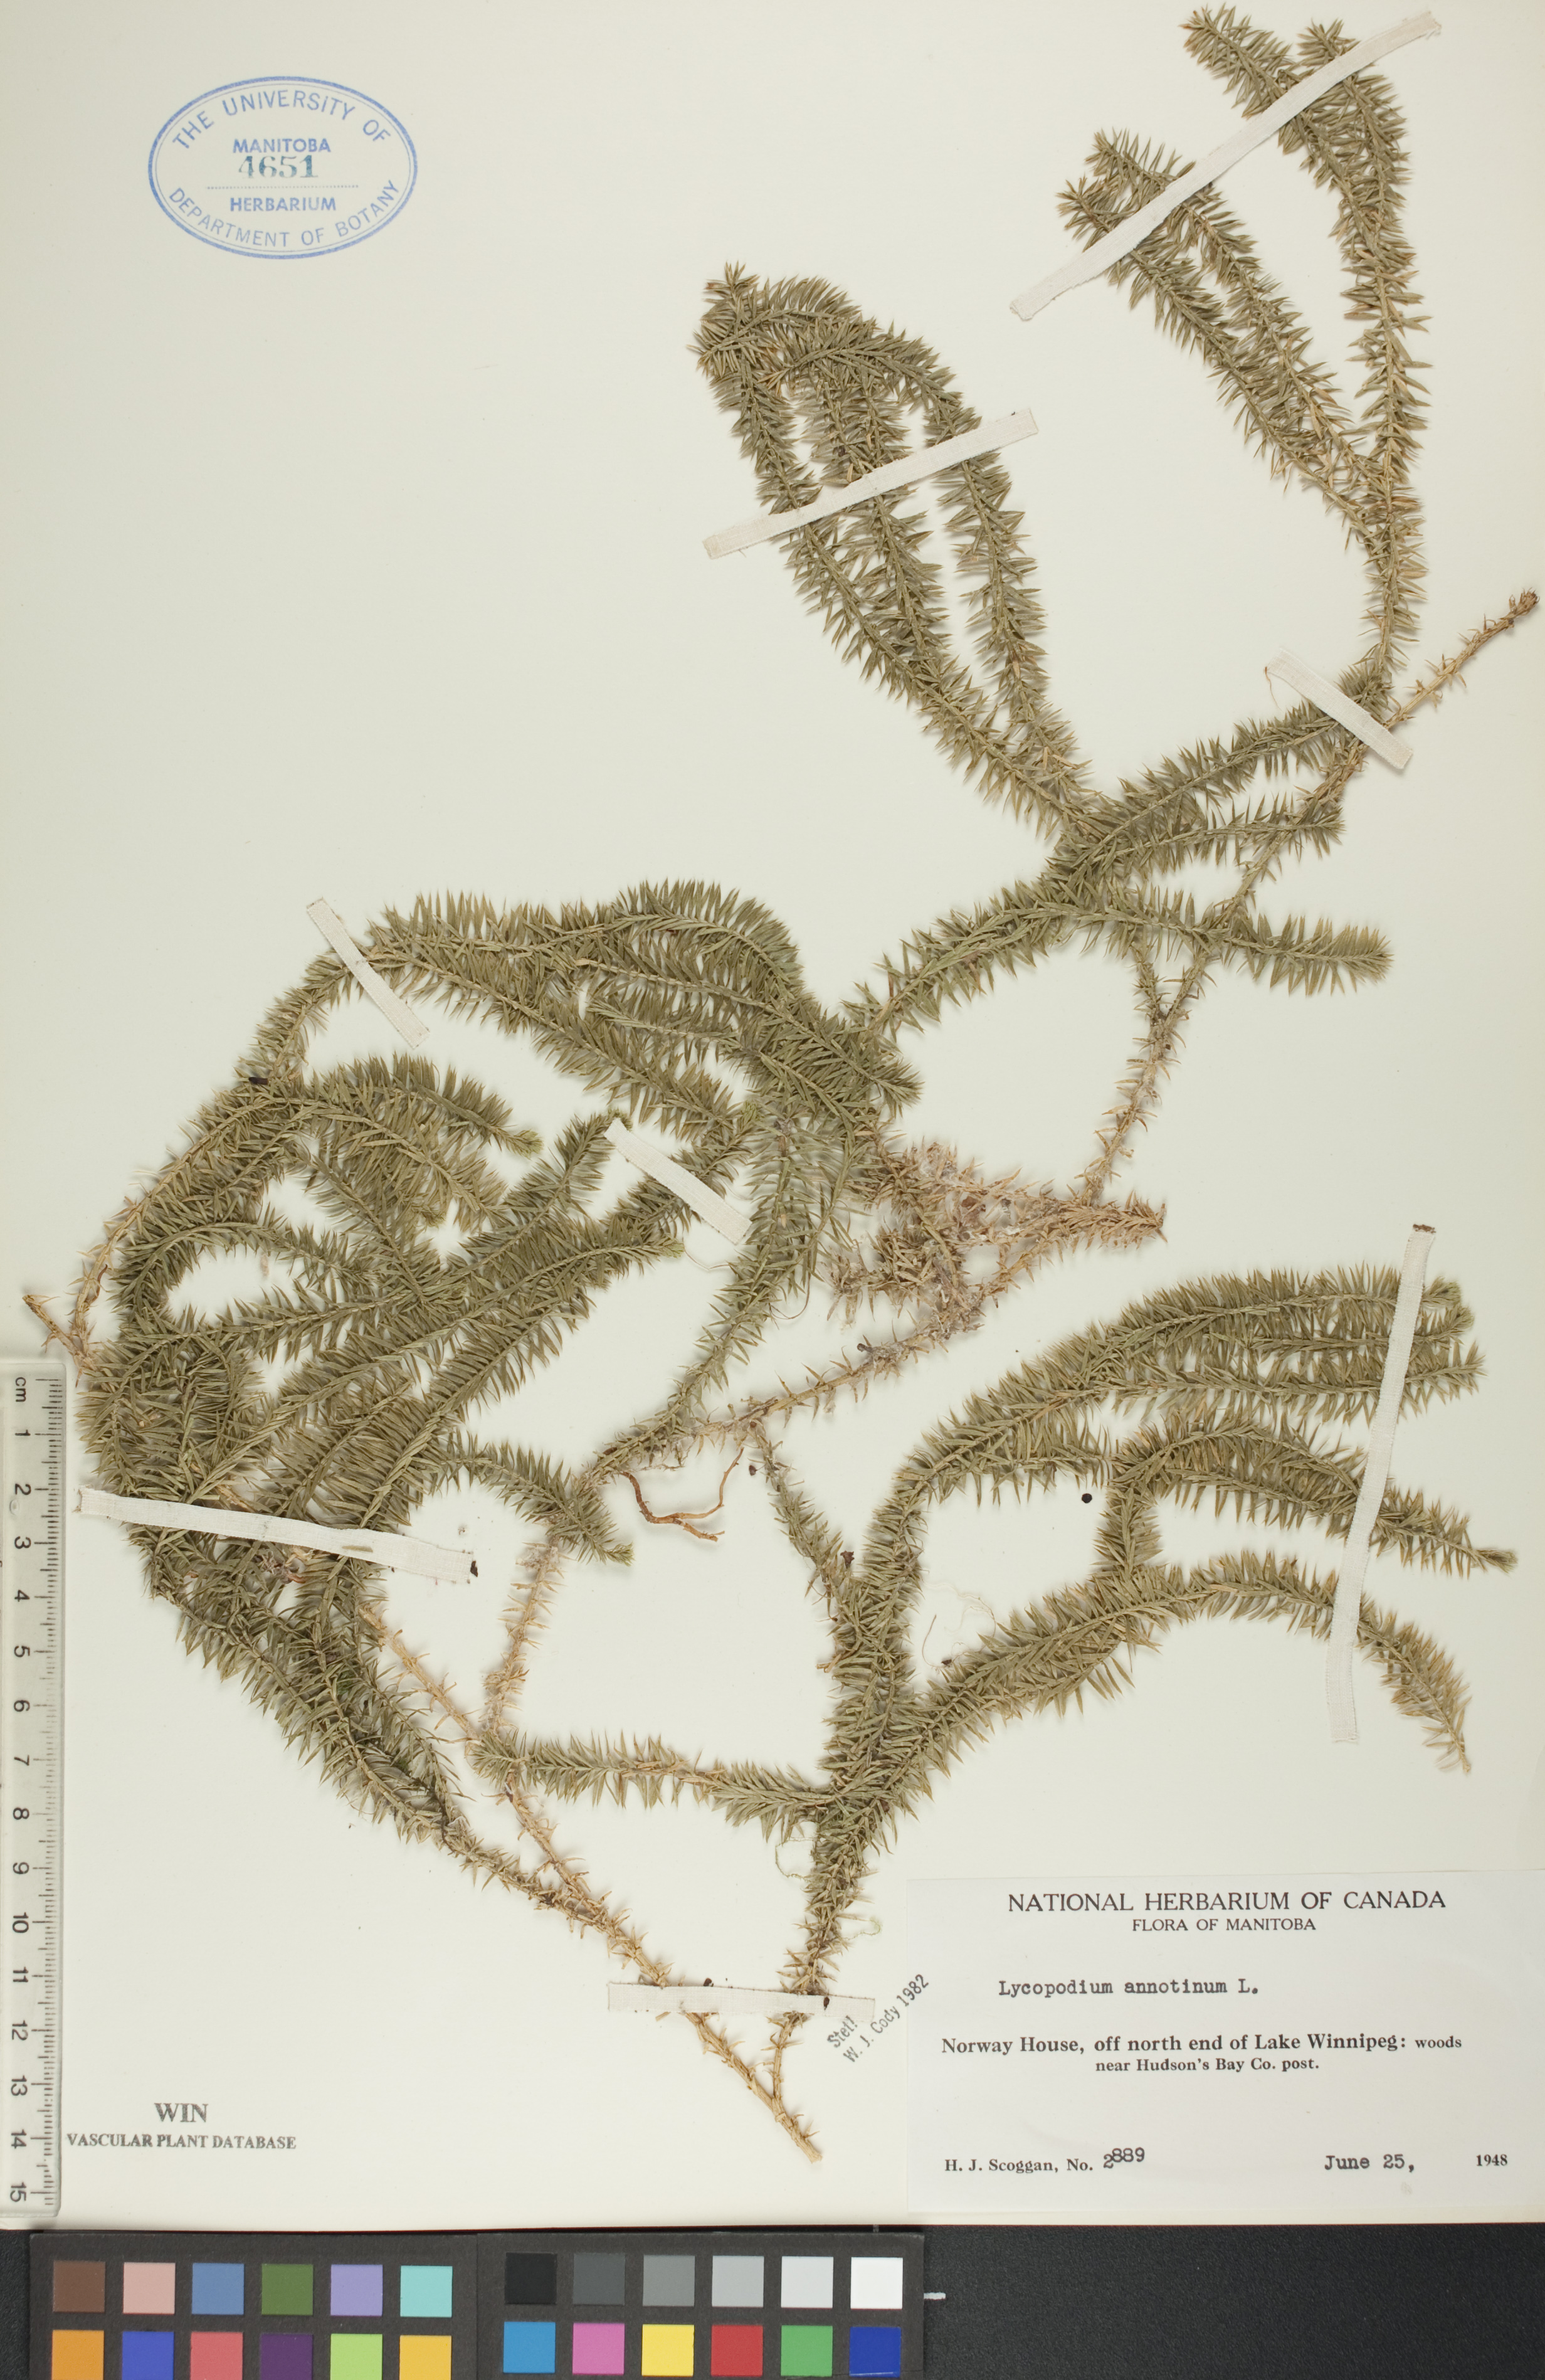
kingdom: Plantae
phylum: Tracheophyta
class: Lycopodiopsida
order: Lycopodiales
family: Lycopodiaceae
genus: Spinulum
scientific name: Spinulum annotinum
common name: Interrupted club-moss
